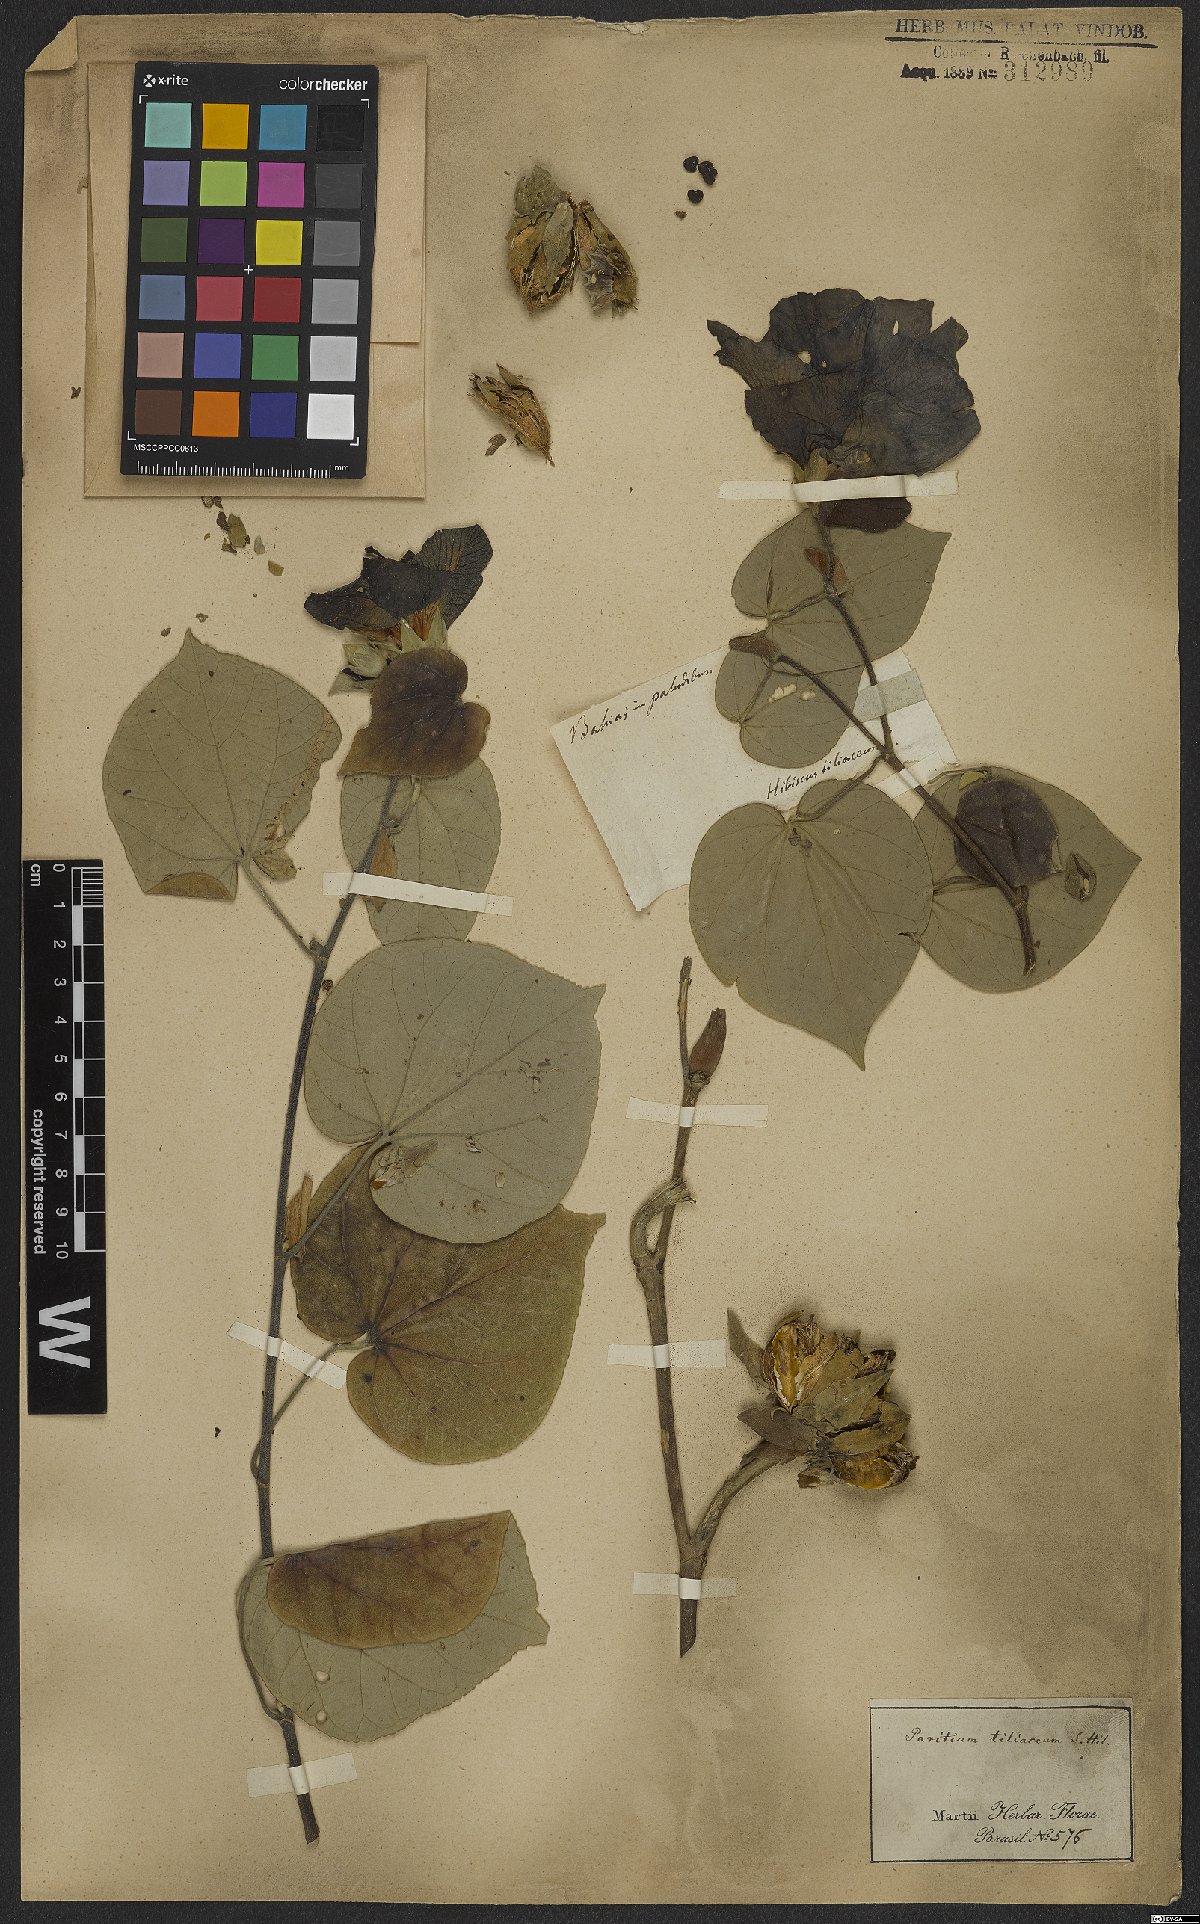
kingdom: Plantae
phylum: Tracheophyta
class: Magnoliopsida
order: Malvales
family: Malvaceae
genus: Talipariti
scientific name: Talipariti tiliaceum
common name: Sea hibiscus
